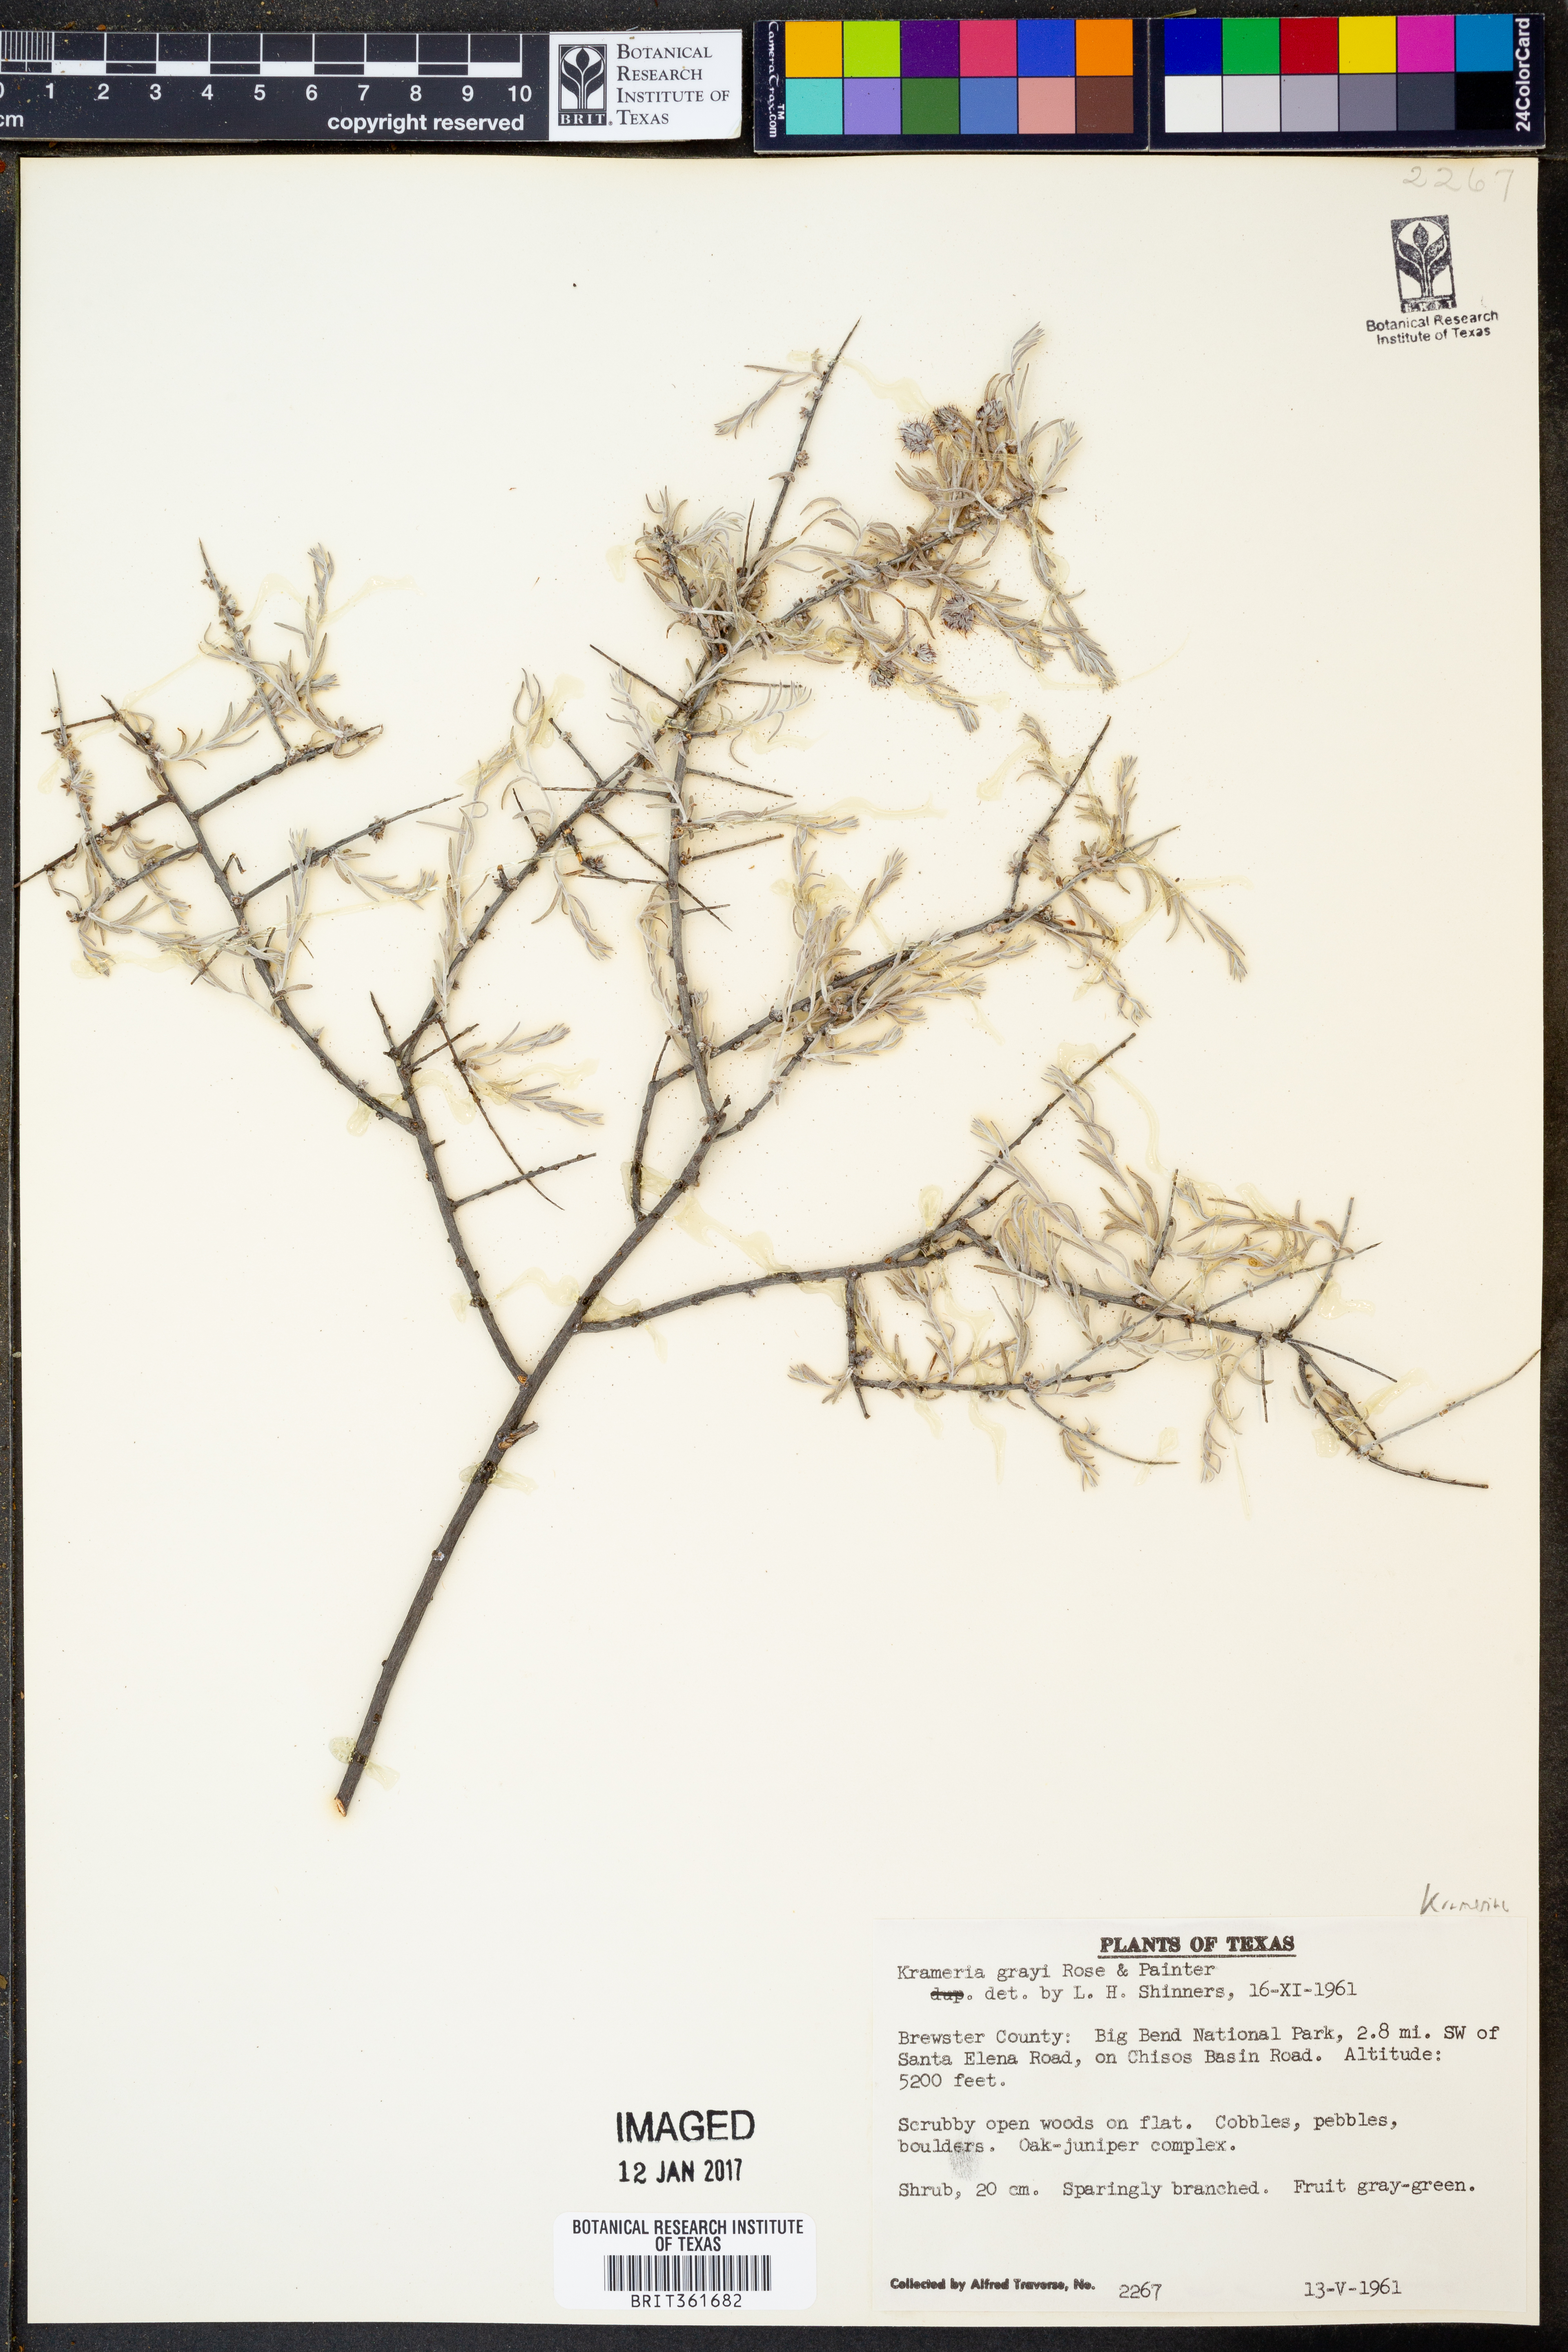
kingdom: Plantae
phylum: Tracheophyta
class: Magnoliopsida
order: Zygophyllales
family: Krameriaceae
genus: Krameria
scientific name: Krameria bicolor
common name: White ratany
